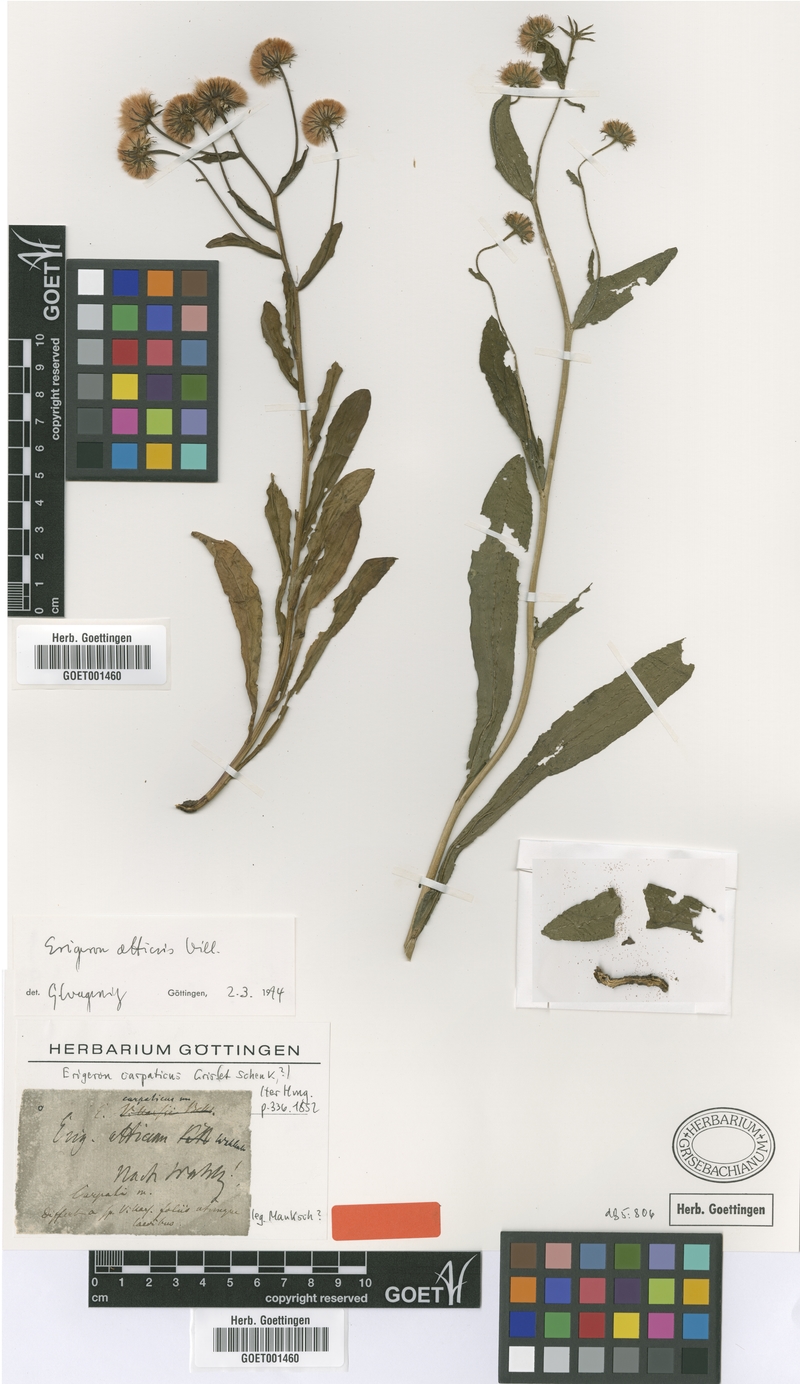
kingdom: Plantae
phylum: Tracheophyta
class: Magnoliopsida
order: Asterales
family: Asteraceae
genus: Erigeron
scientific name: Erigeron atticus
